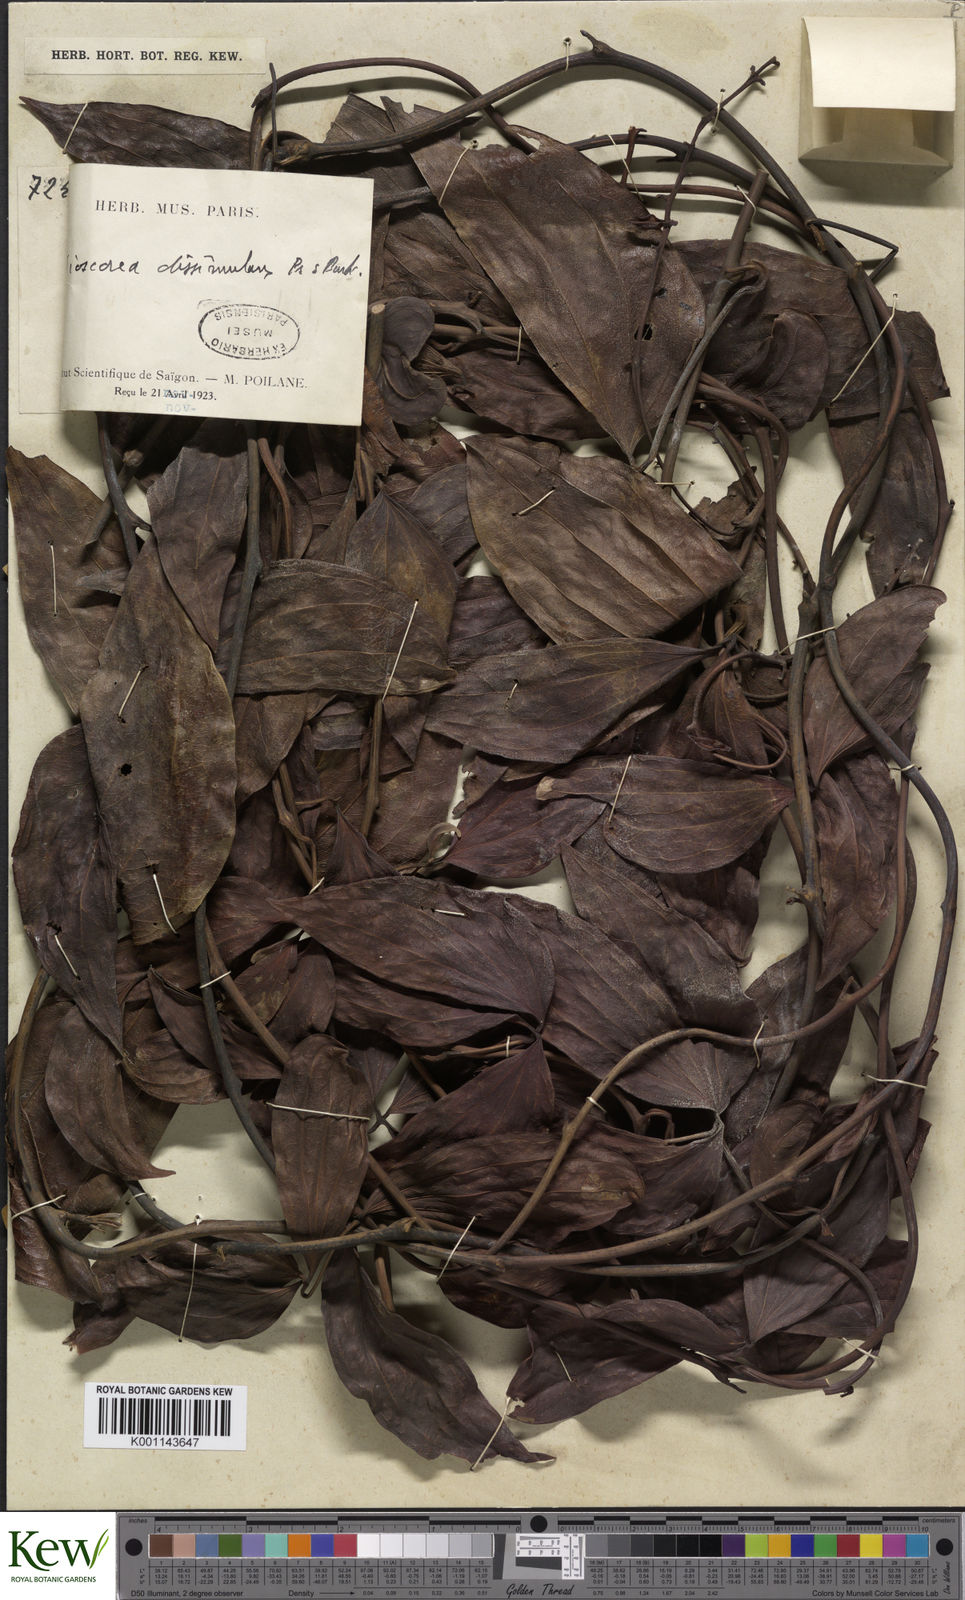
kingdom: Plantae
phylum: Tracheophyta
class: Liliopsida
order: Dioscoreales
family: Dioscoreaceae
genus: Dioscorea
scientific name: Dioscorea dissimulans
